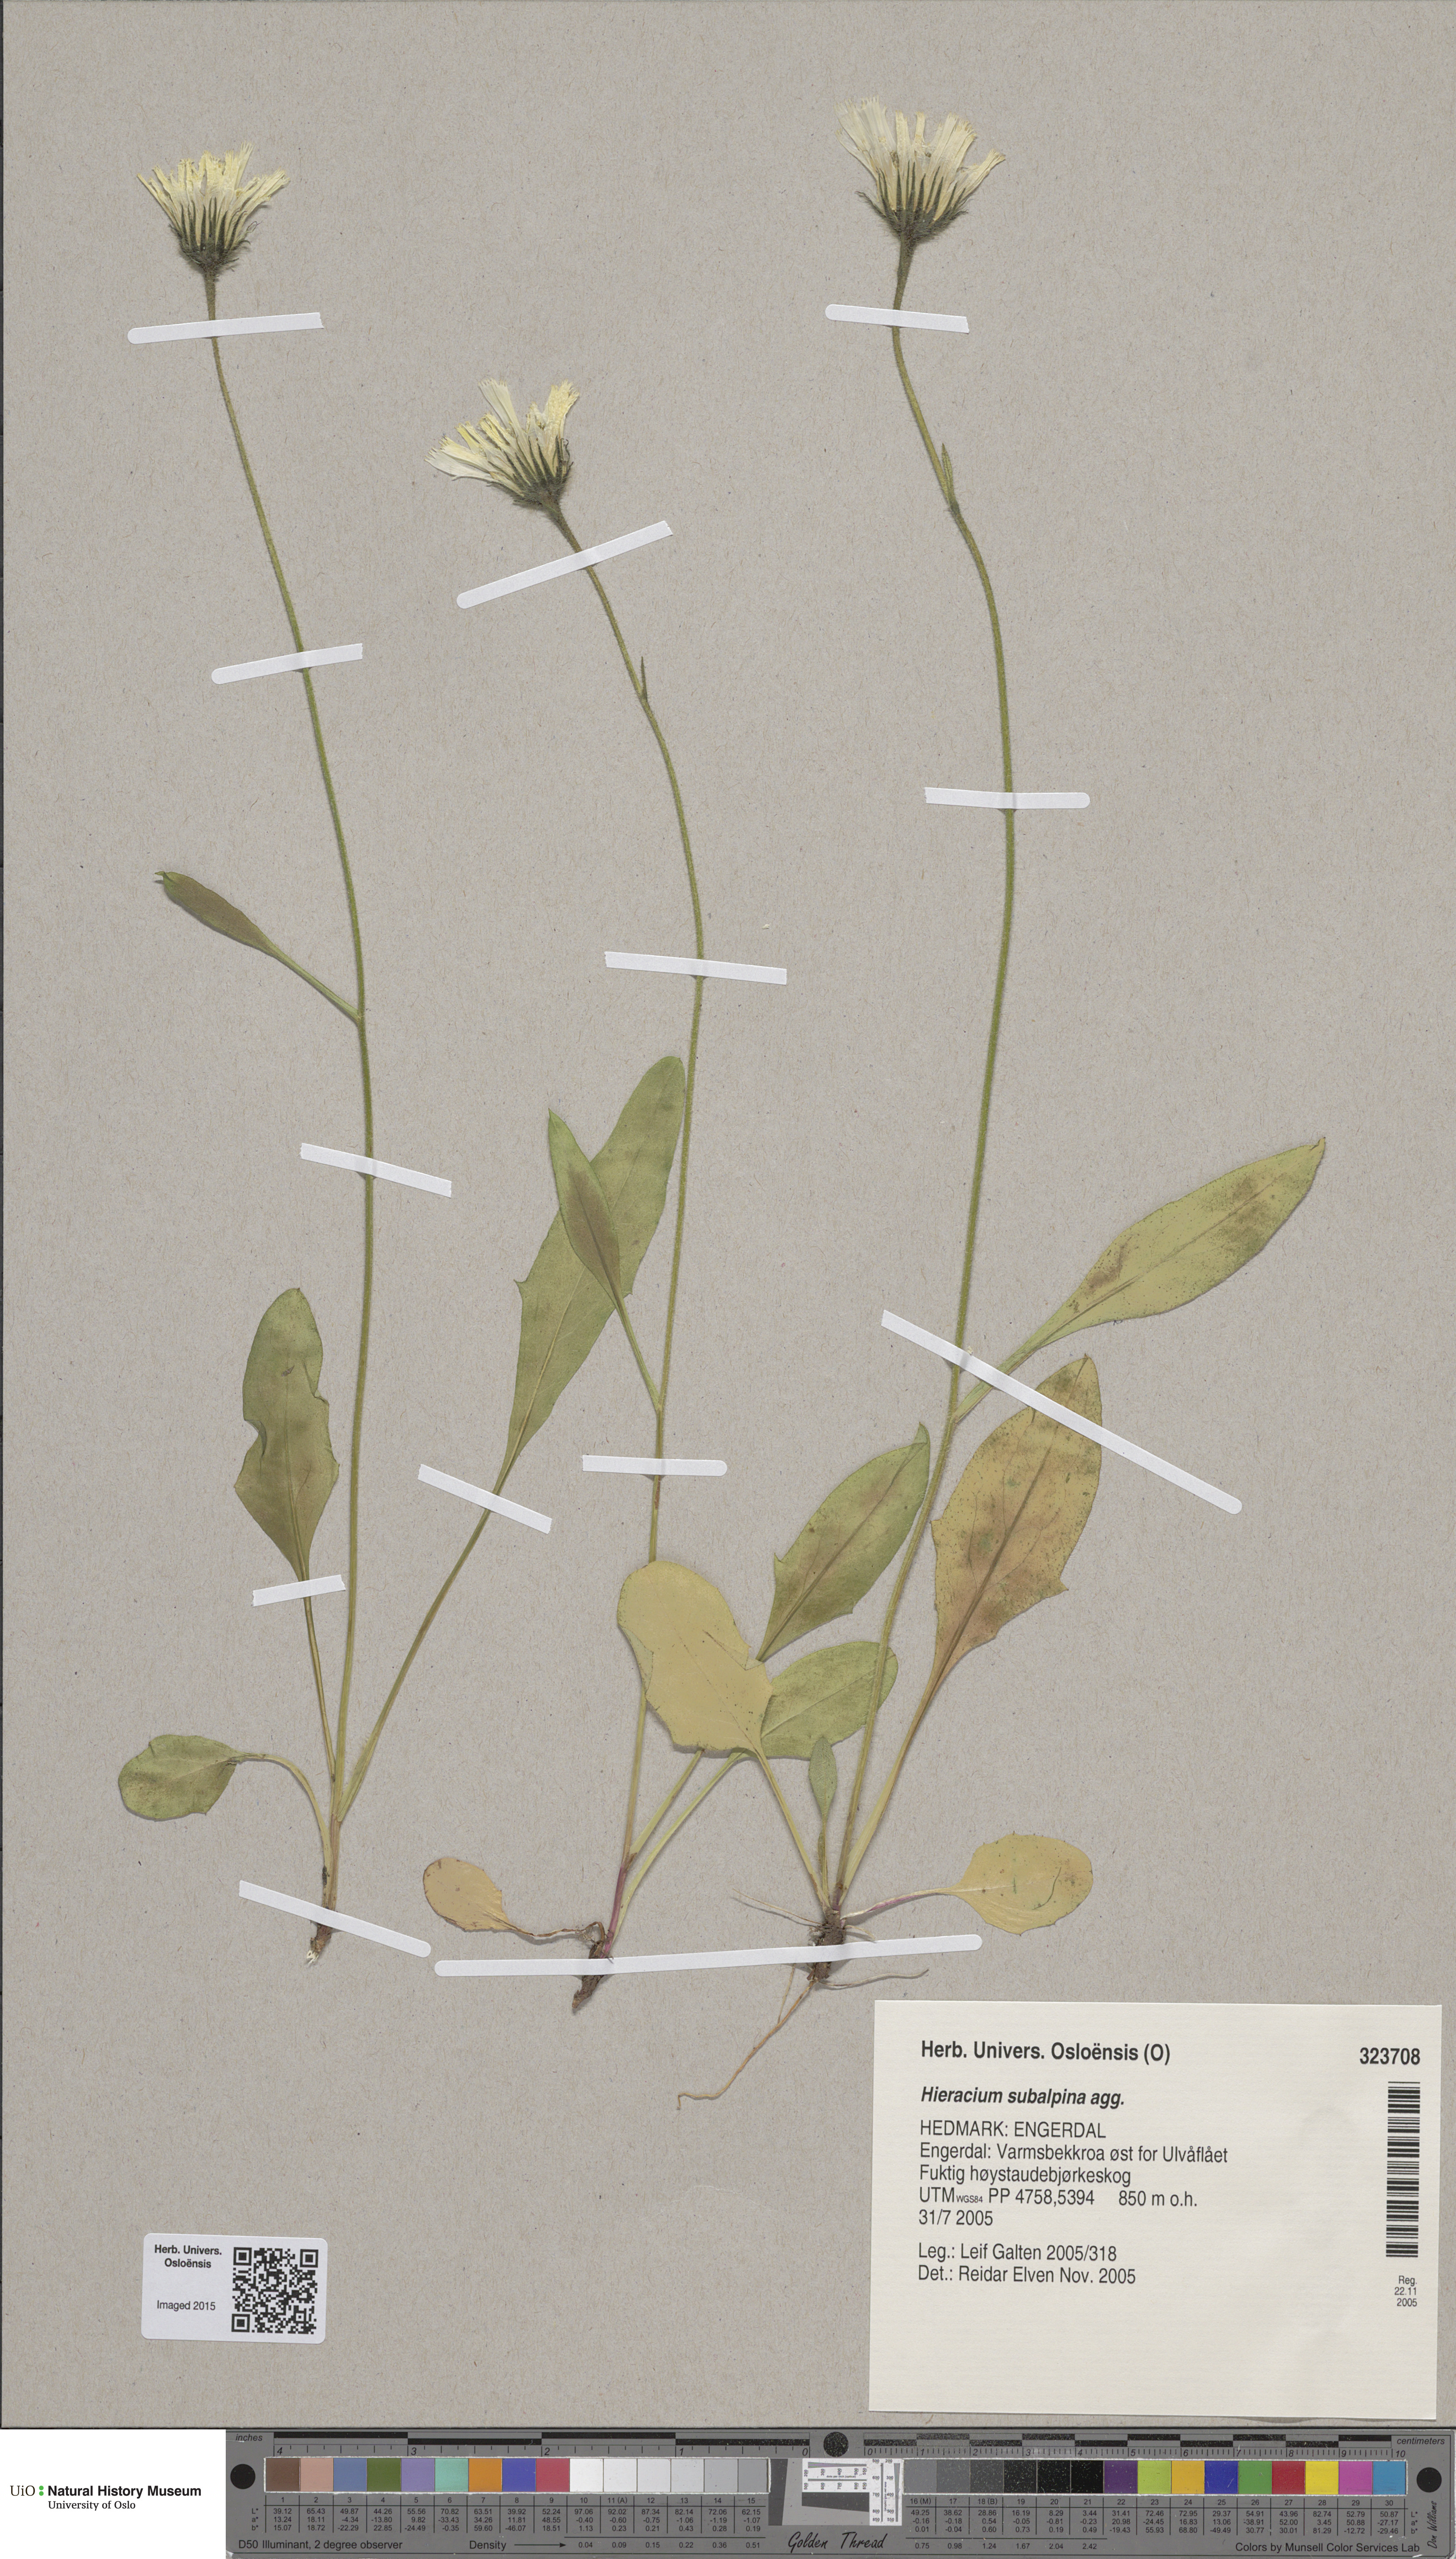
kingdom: Plantae
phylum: Tracheophyta
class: Magnoliopsida
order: Asterales
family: Asteraceae
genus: Hieracium
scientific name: Hieracium umbrosum
